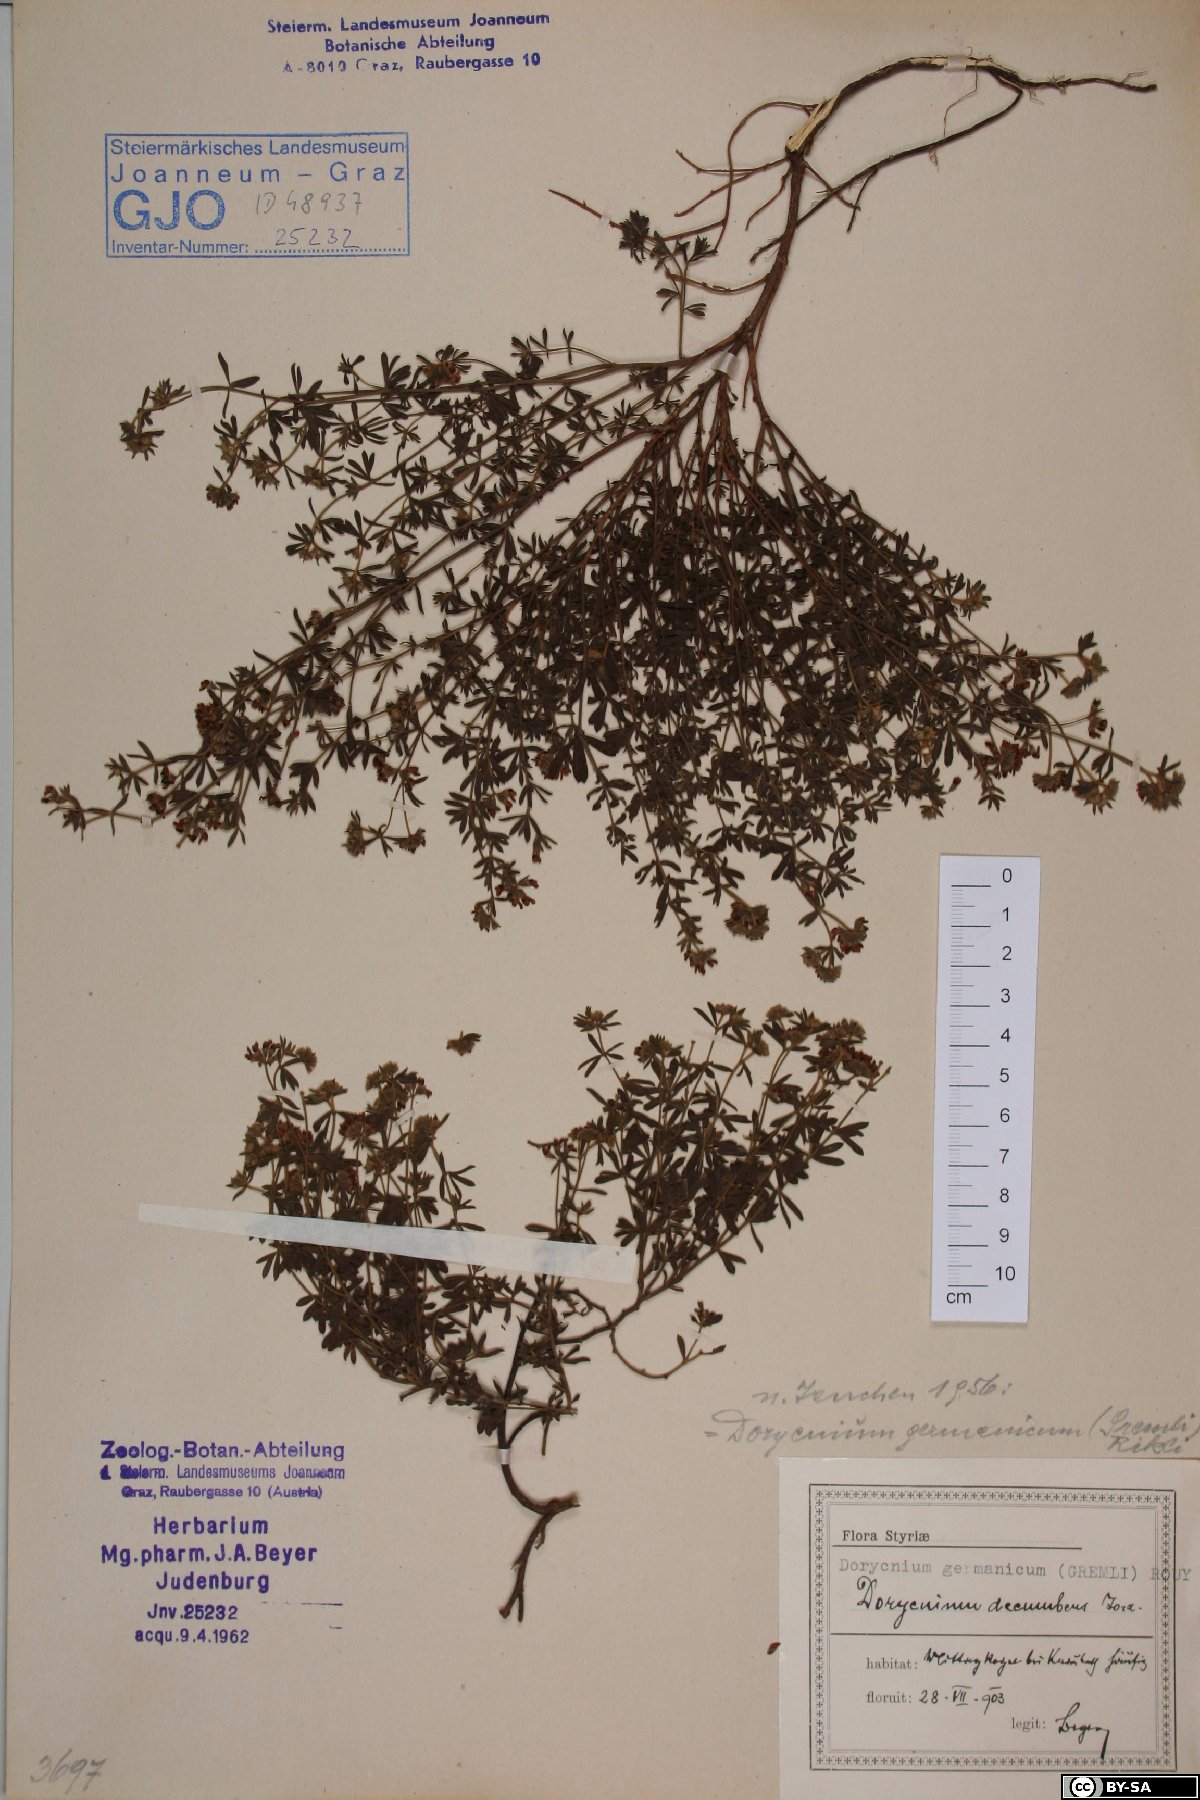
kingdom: Plantae
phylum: Tracheophyta
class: Magnoliopsida
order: Fabales
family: Fabaceae
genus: Lotus
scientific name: Lotus germanicus
